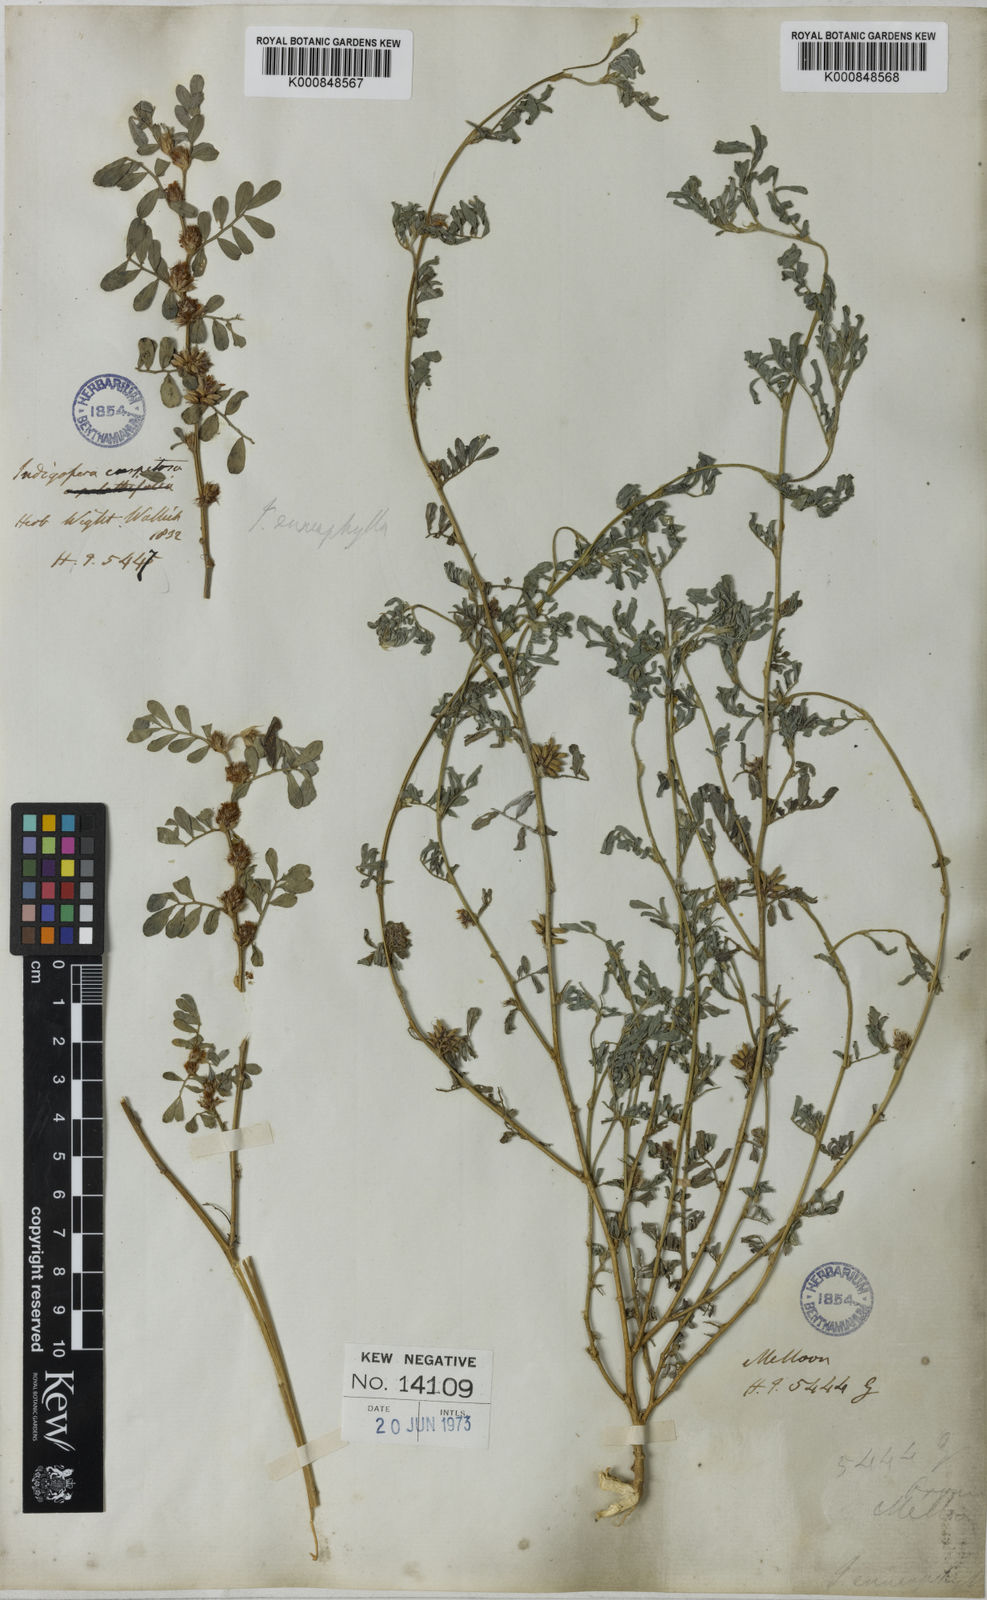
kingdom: Plantae
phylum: Tracheophyta
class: Magnoliopsida
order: Fabales
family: Fabaceae
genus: Indigofera
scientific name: Indigofera linnaei
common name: Nine-leaf indigo
